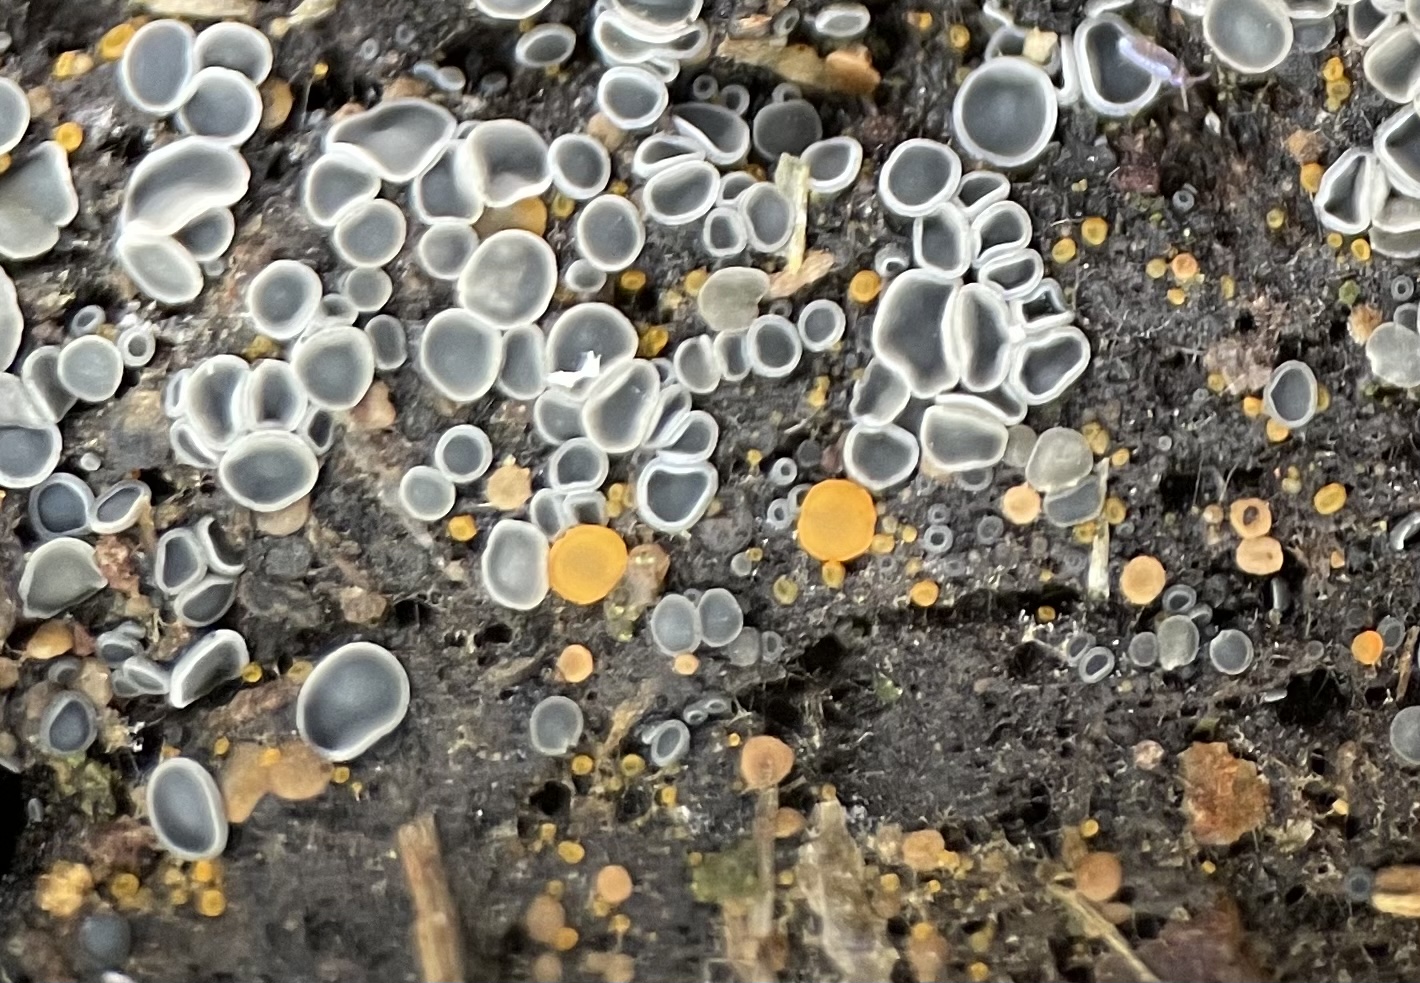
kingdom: Fungi
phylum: Ascomycota
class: Orbiliomycetes
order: Orbiliales
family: Orbiliaceae
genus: Orbilia
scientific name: Orbilia xanthostigma
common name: krumsporet voksskive
